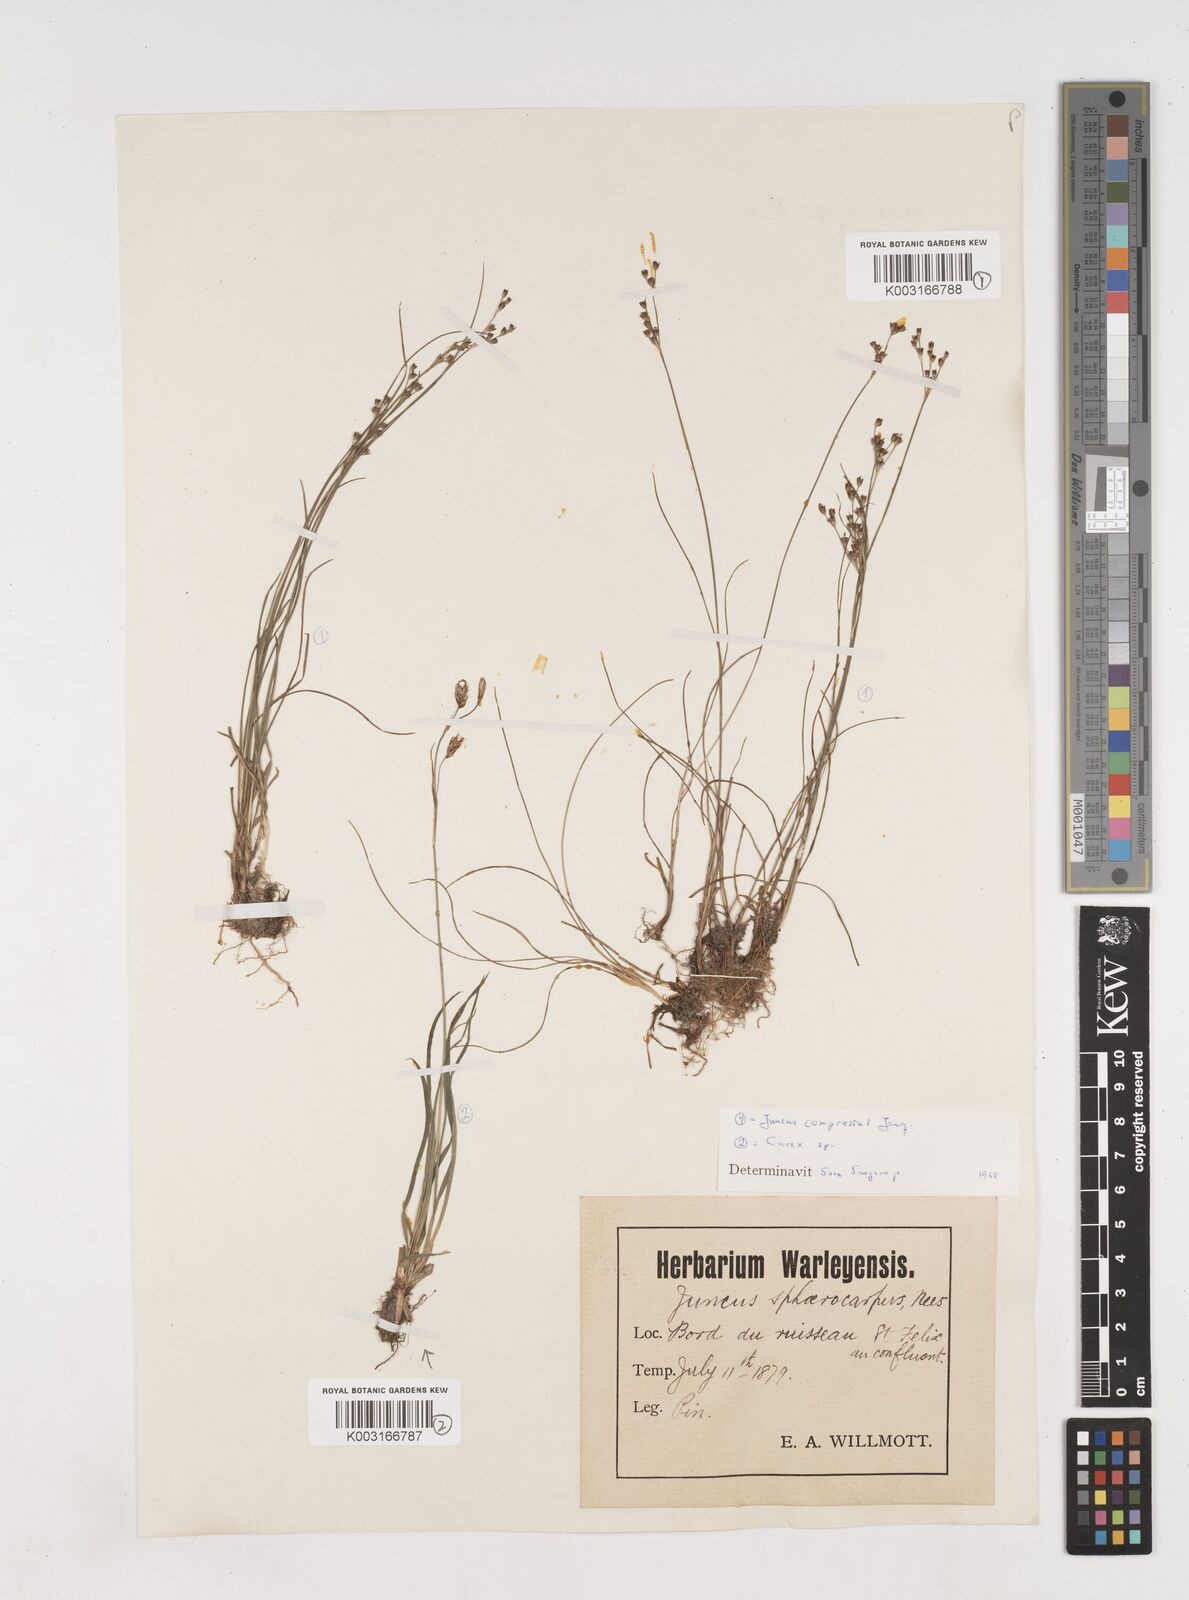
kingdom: Plantae
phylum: Tracheophyta
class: Liliopsida
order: Poales
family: Juncaceae
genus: Juncus
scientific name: Juncus compressus
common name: Round-fruited rush
